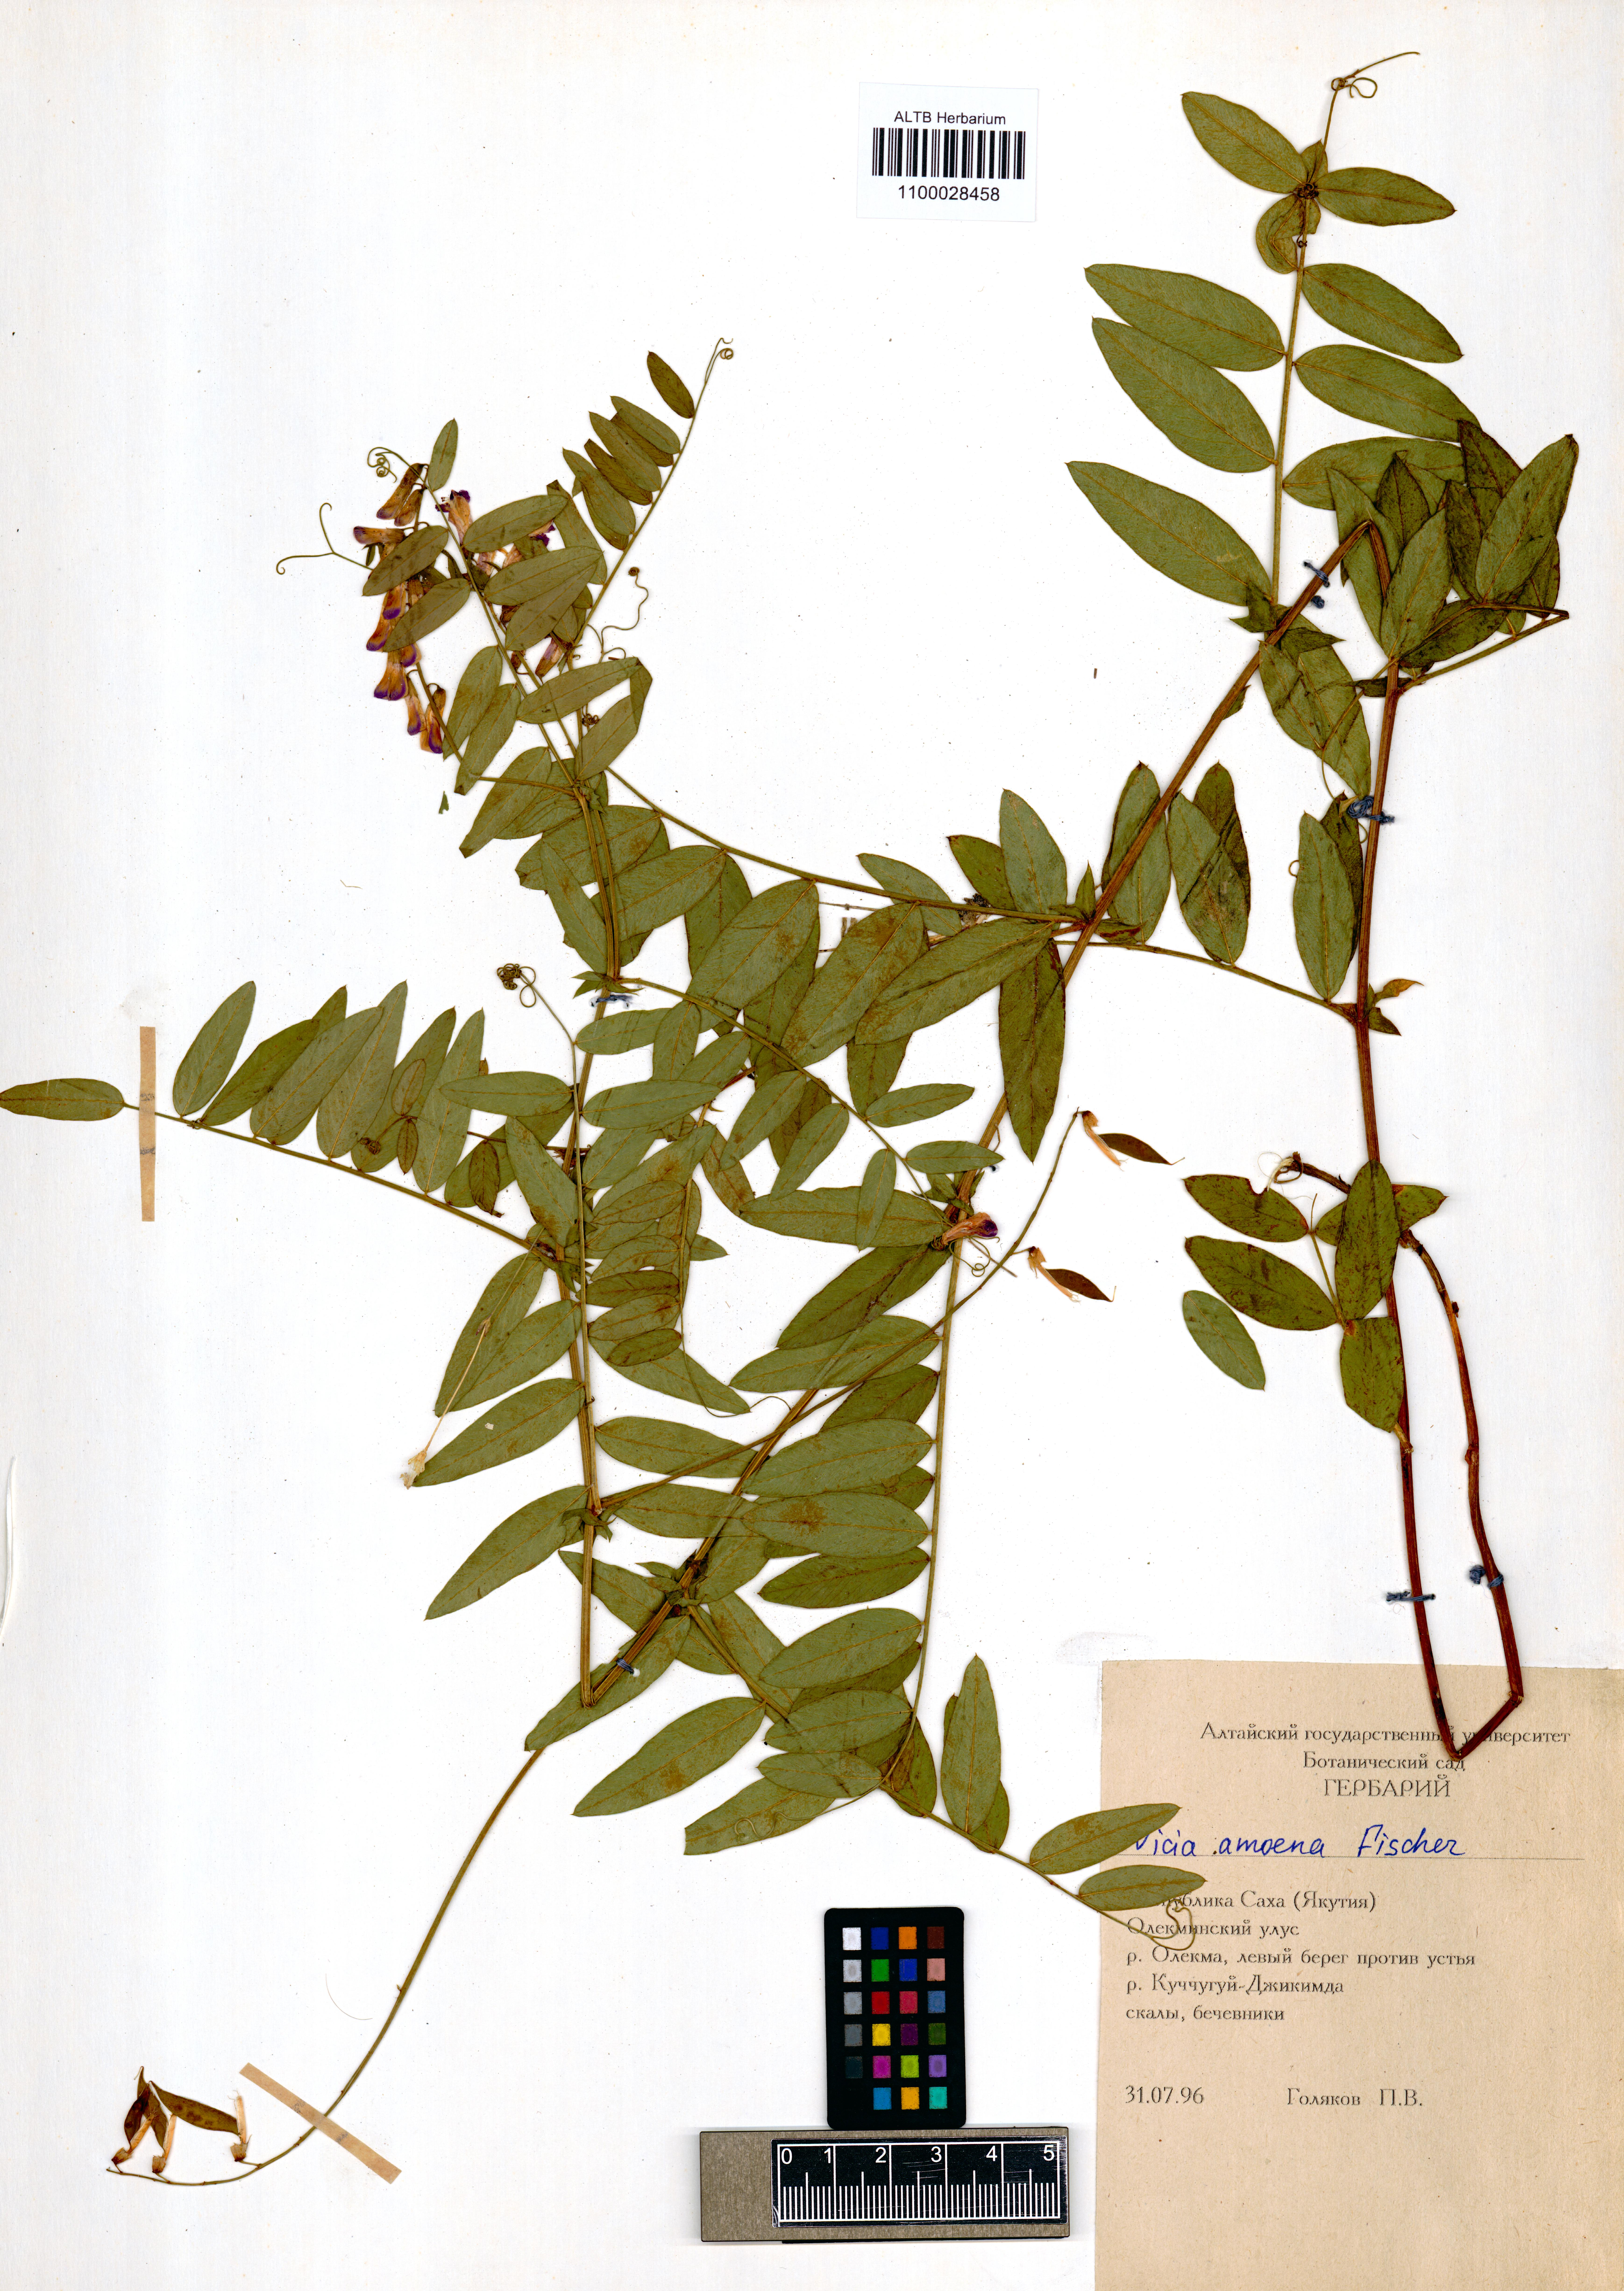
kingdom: Plantae
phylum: Tracheophyta
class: Magnoliopsida
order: Fabales
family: Fabaceae
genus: Vicia
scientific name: Vicia amoena
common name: Cheder ebs
